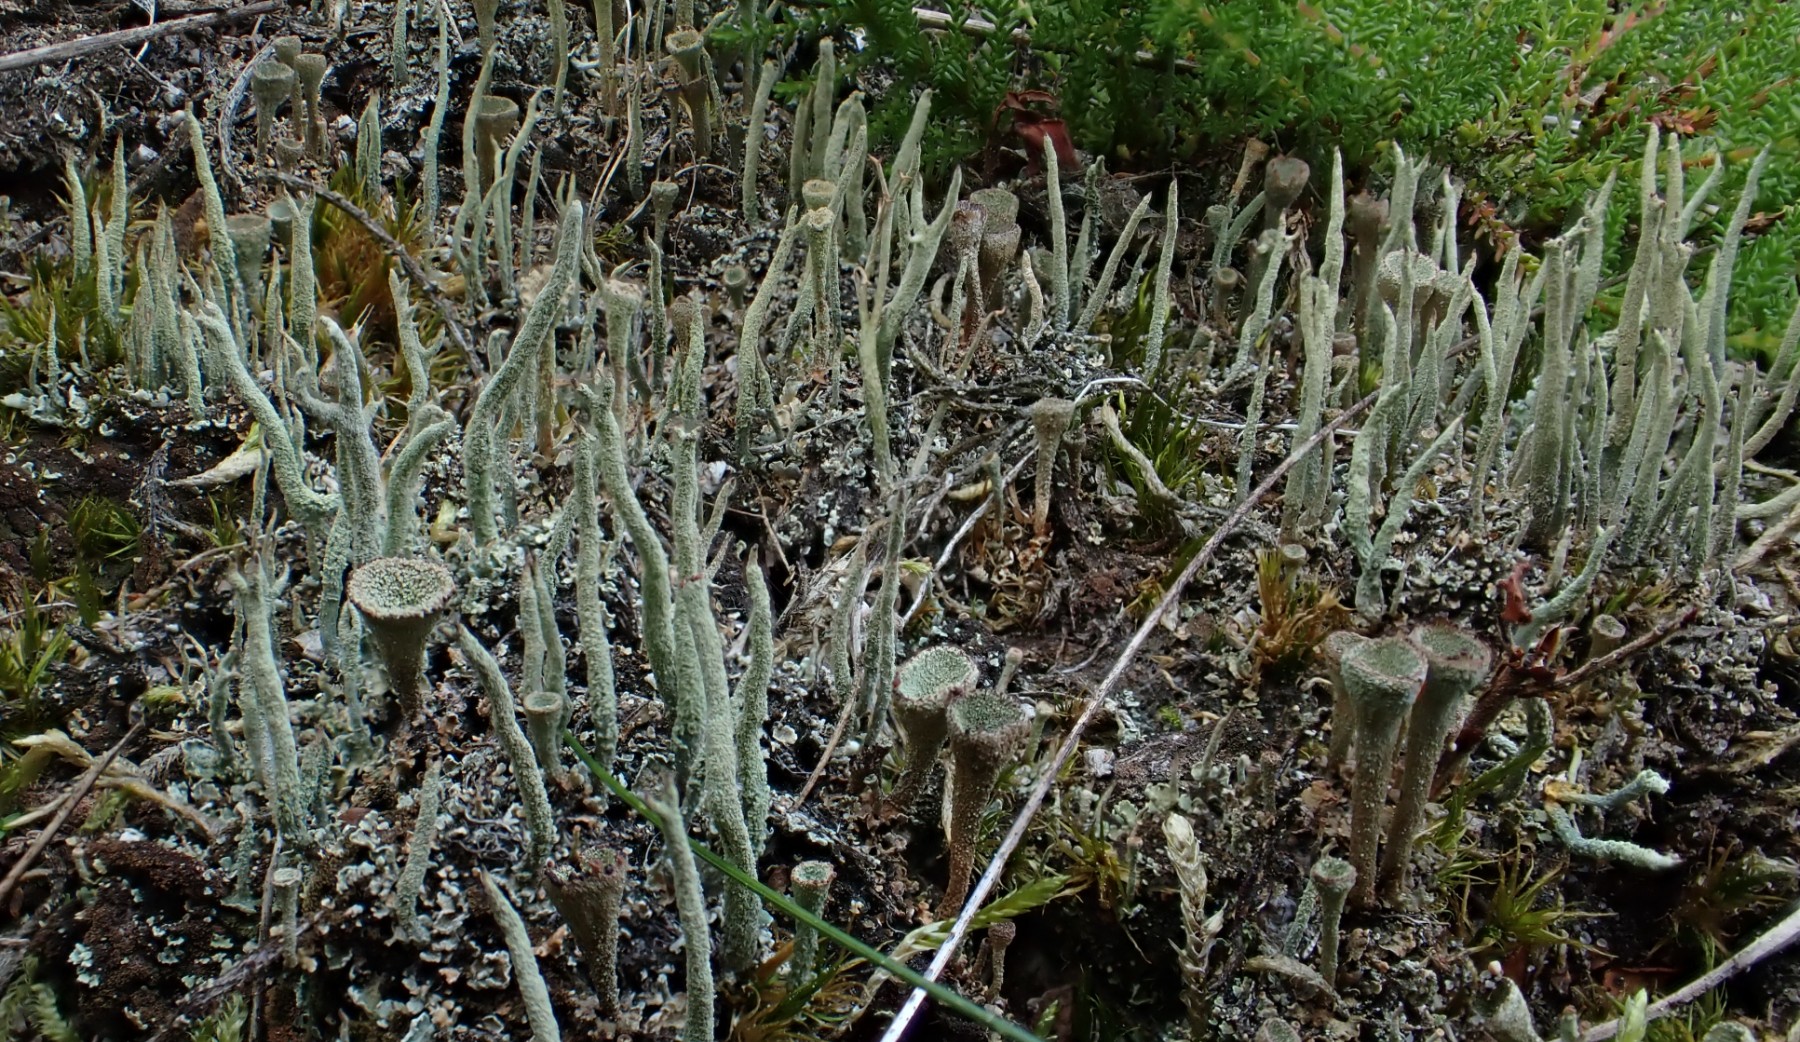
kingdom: Fungi
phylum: Ascomycota
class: Lecanoromycetes
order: Lecanorales
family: Cladoniaceae
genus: Cladonia
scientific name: Cladonia macilenta
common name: indsvunden bægerlav
